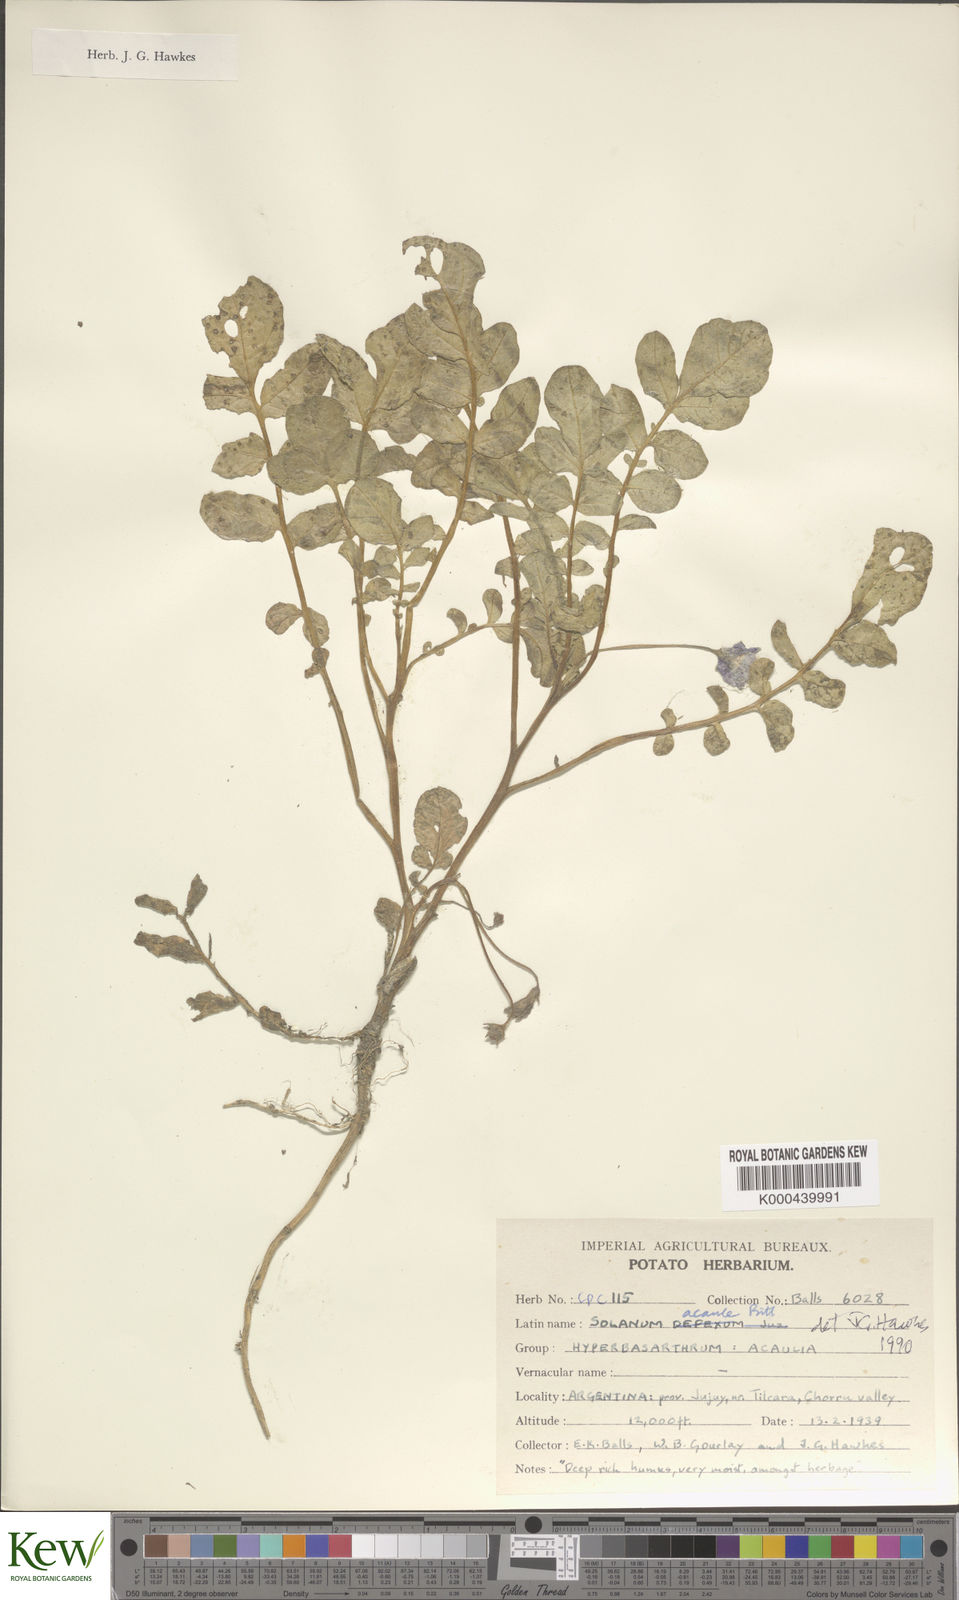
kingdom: Plantae
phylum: Tracheophyta
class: Magnoliopsida
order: Solanales
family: Solanaceae
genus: Solanum
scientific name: Solanum acaule
